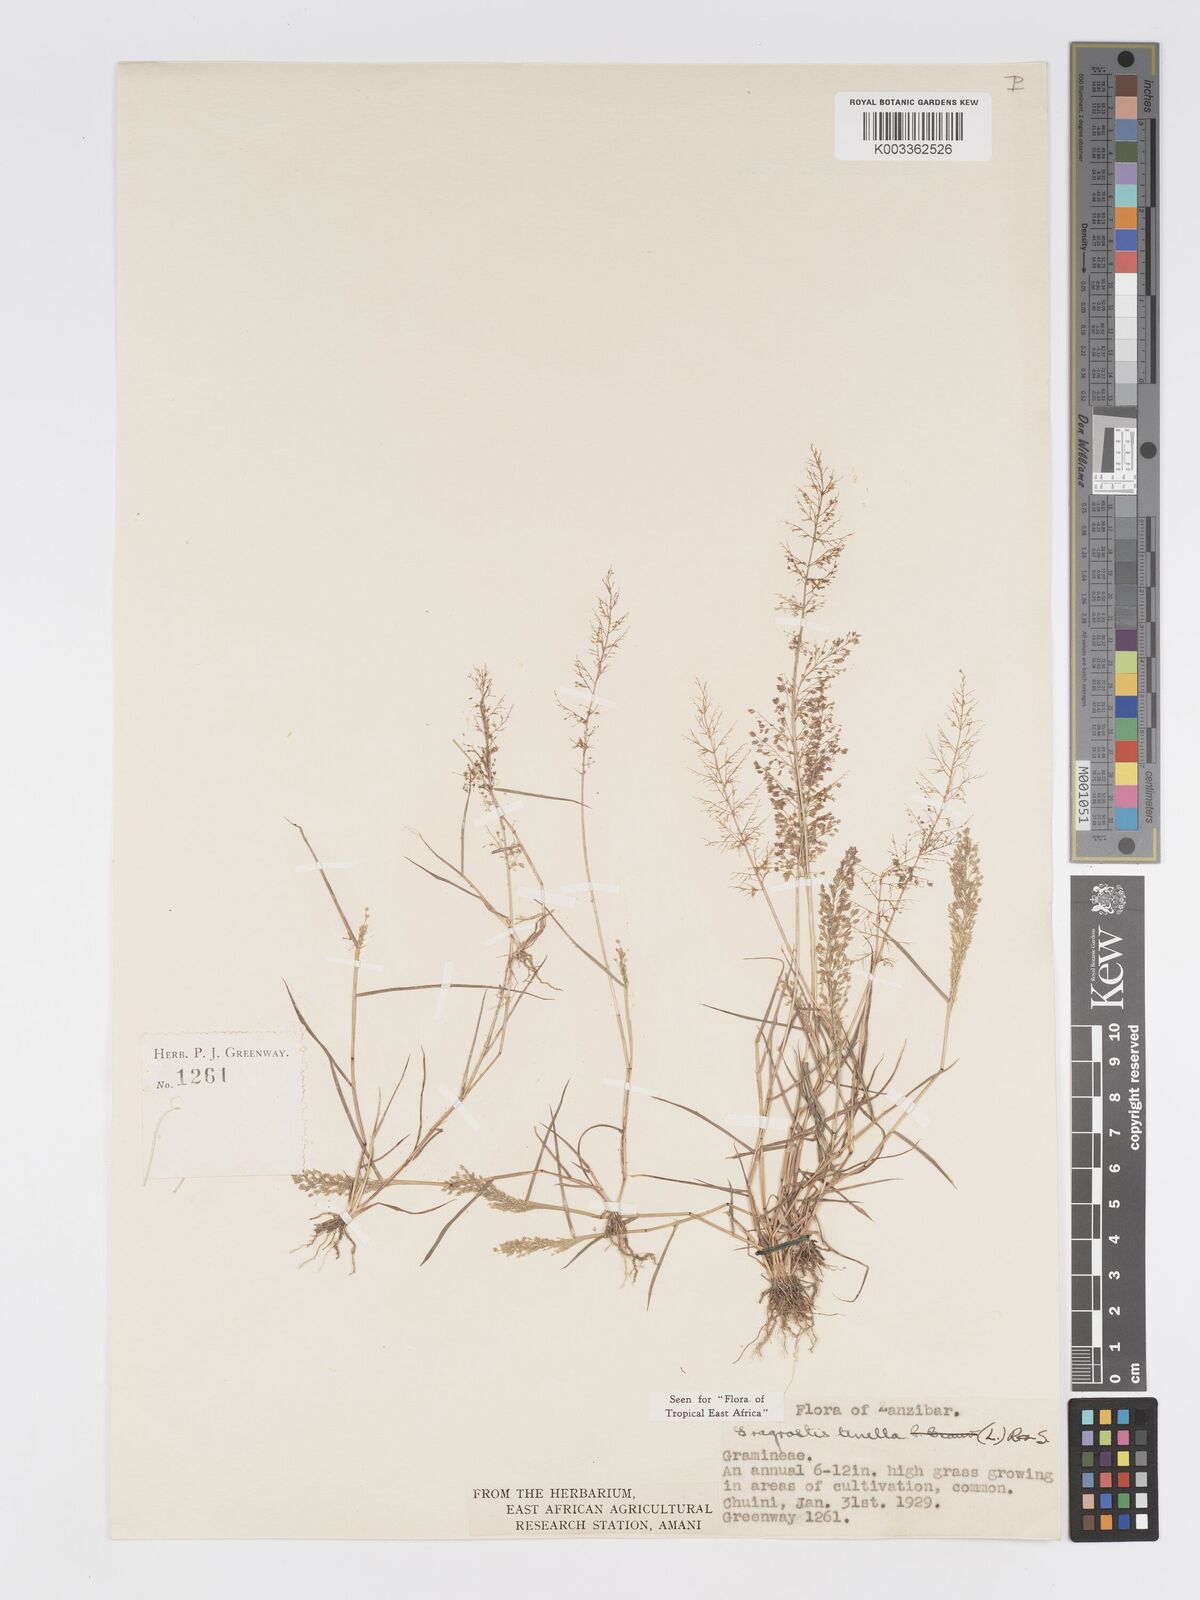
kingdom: Plantae
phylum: Tracheophyta
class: Liliopsida
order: Poales
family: Poaceae
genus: Eragrostis
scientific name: Eragrostis tenella
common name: Japanese lovegrass
